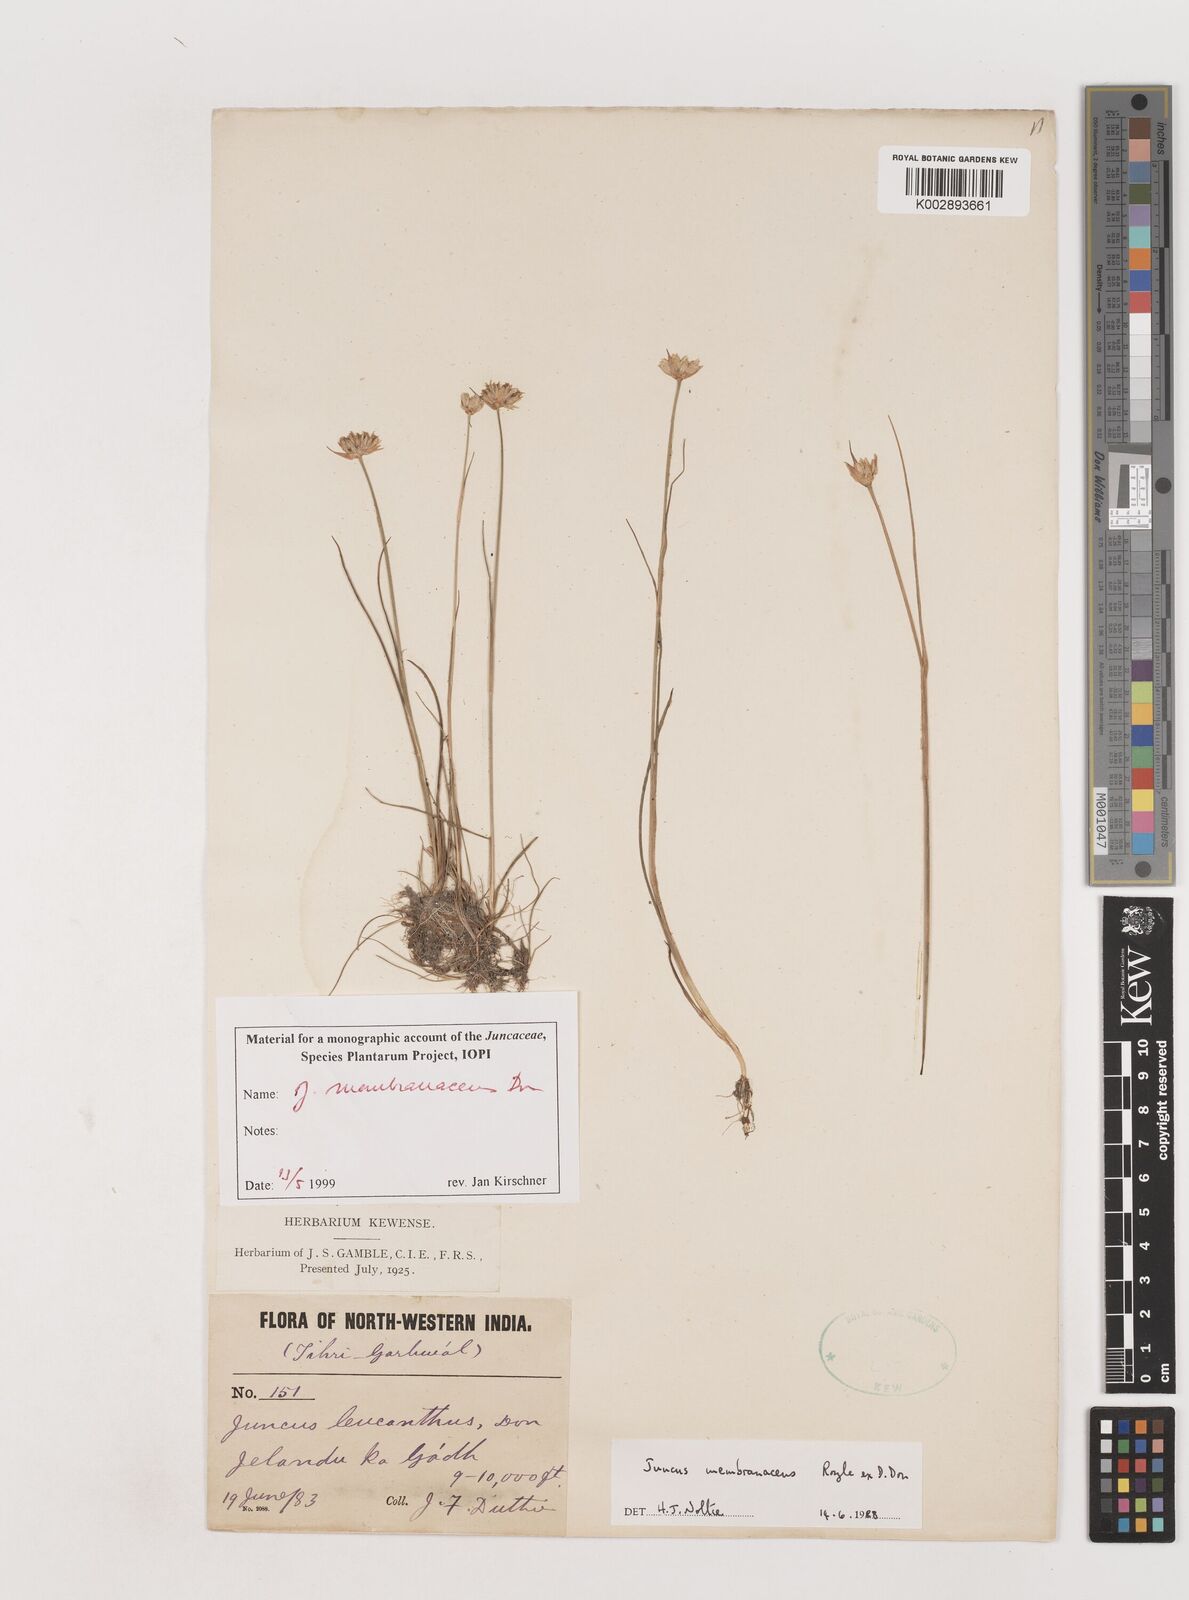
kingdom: Plantae
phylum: Tracheophyta
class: Liliopsida
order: Poales
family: Juncaceae
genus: Juncus
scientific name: Juncus membranaceus
